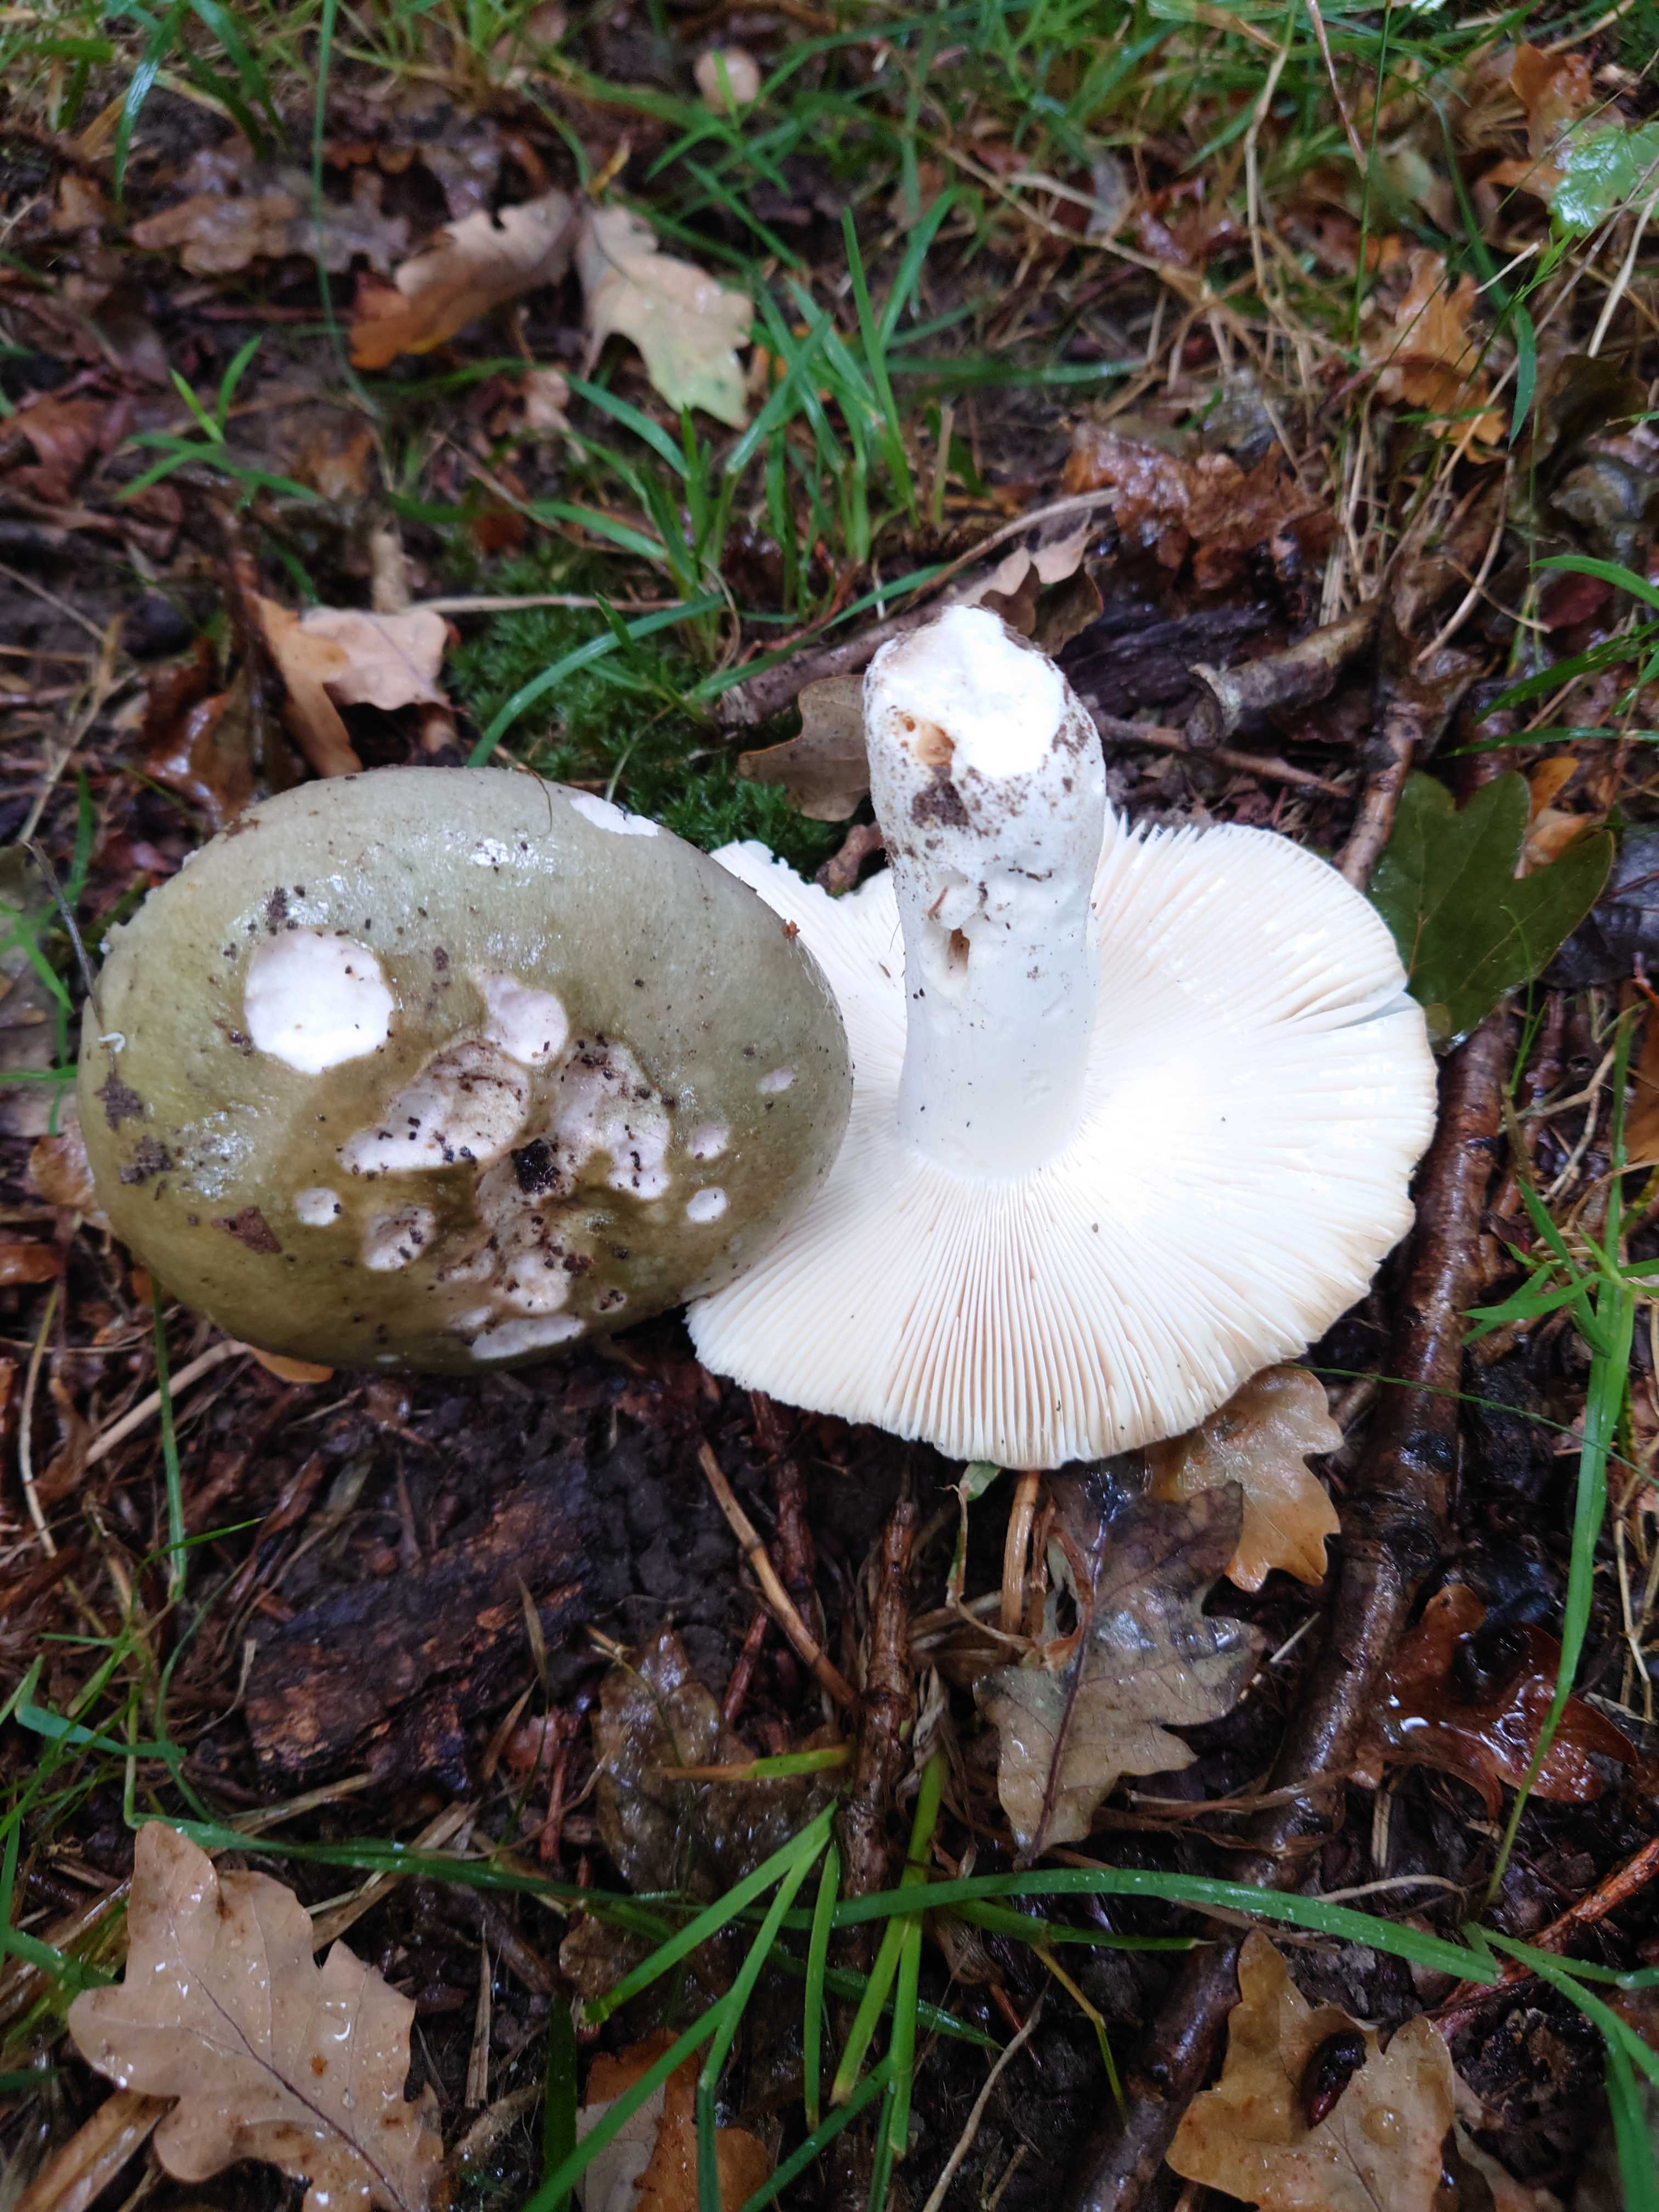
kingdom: Fungi
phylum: Basidiomycota
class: Agaricomycetes
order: Russulales
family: Russulaceae
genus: Russula
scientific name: Russula cyanoxantha
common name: broget skørhat
